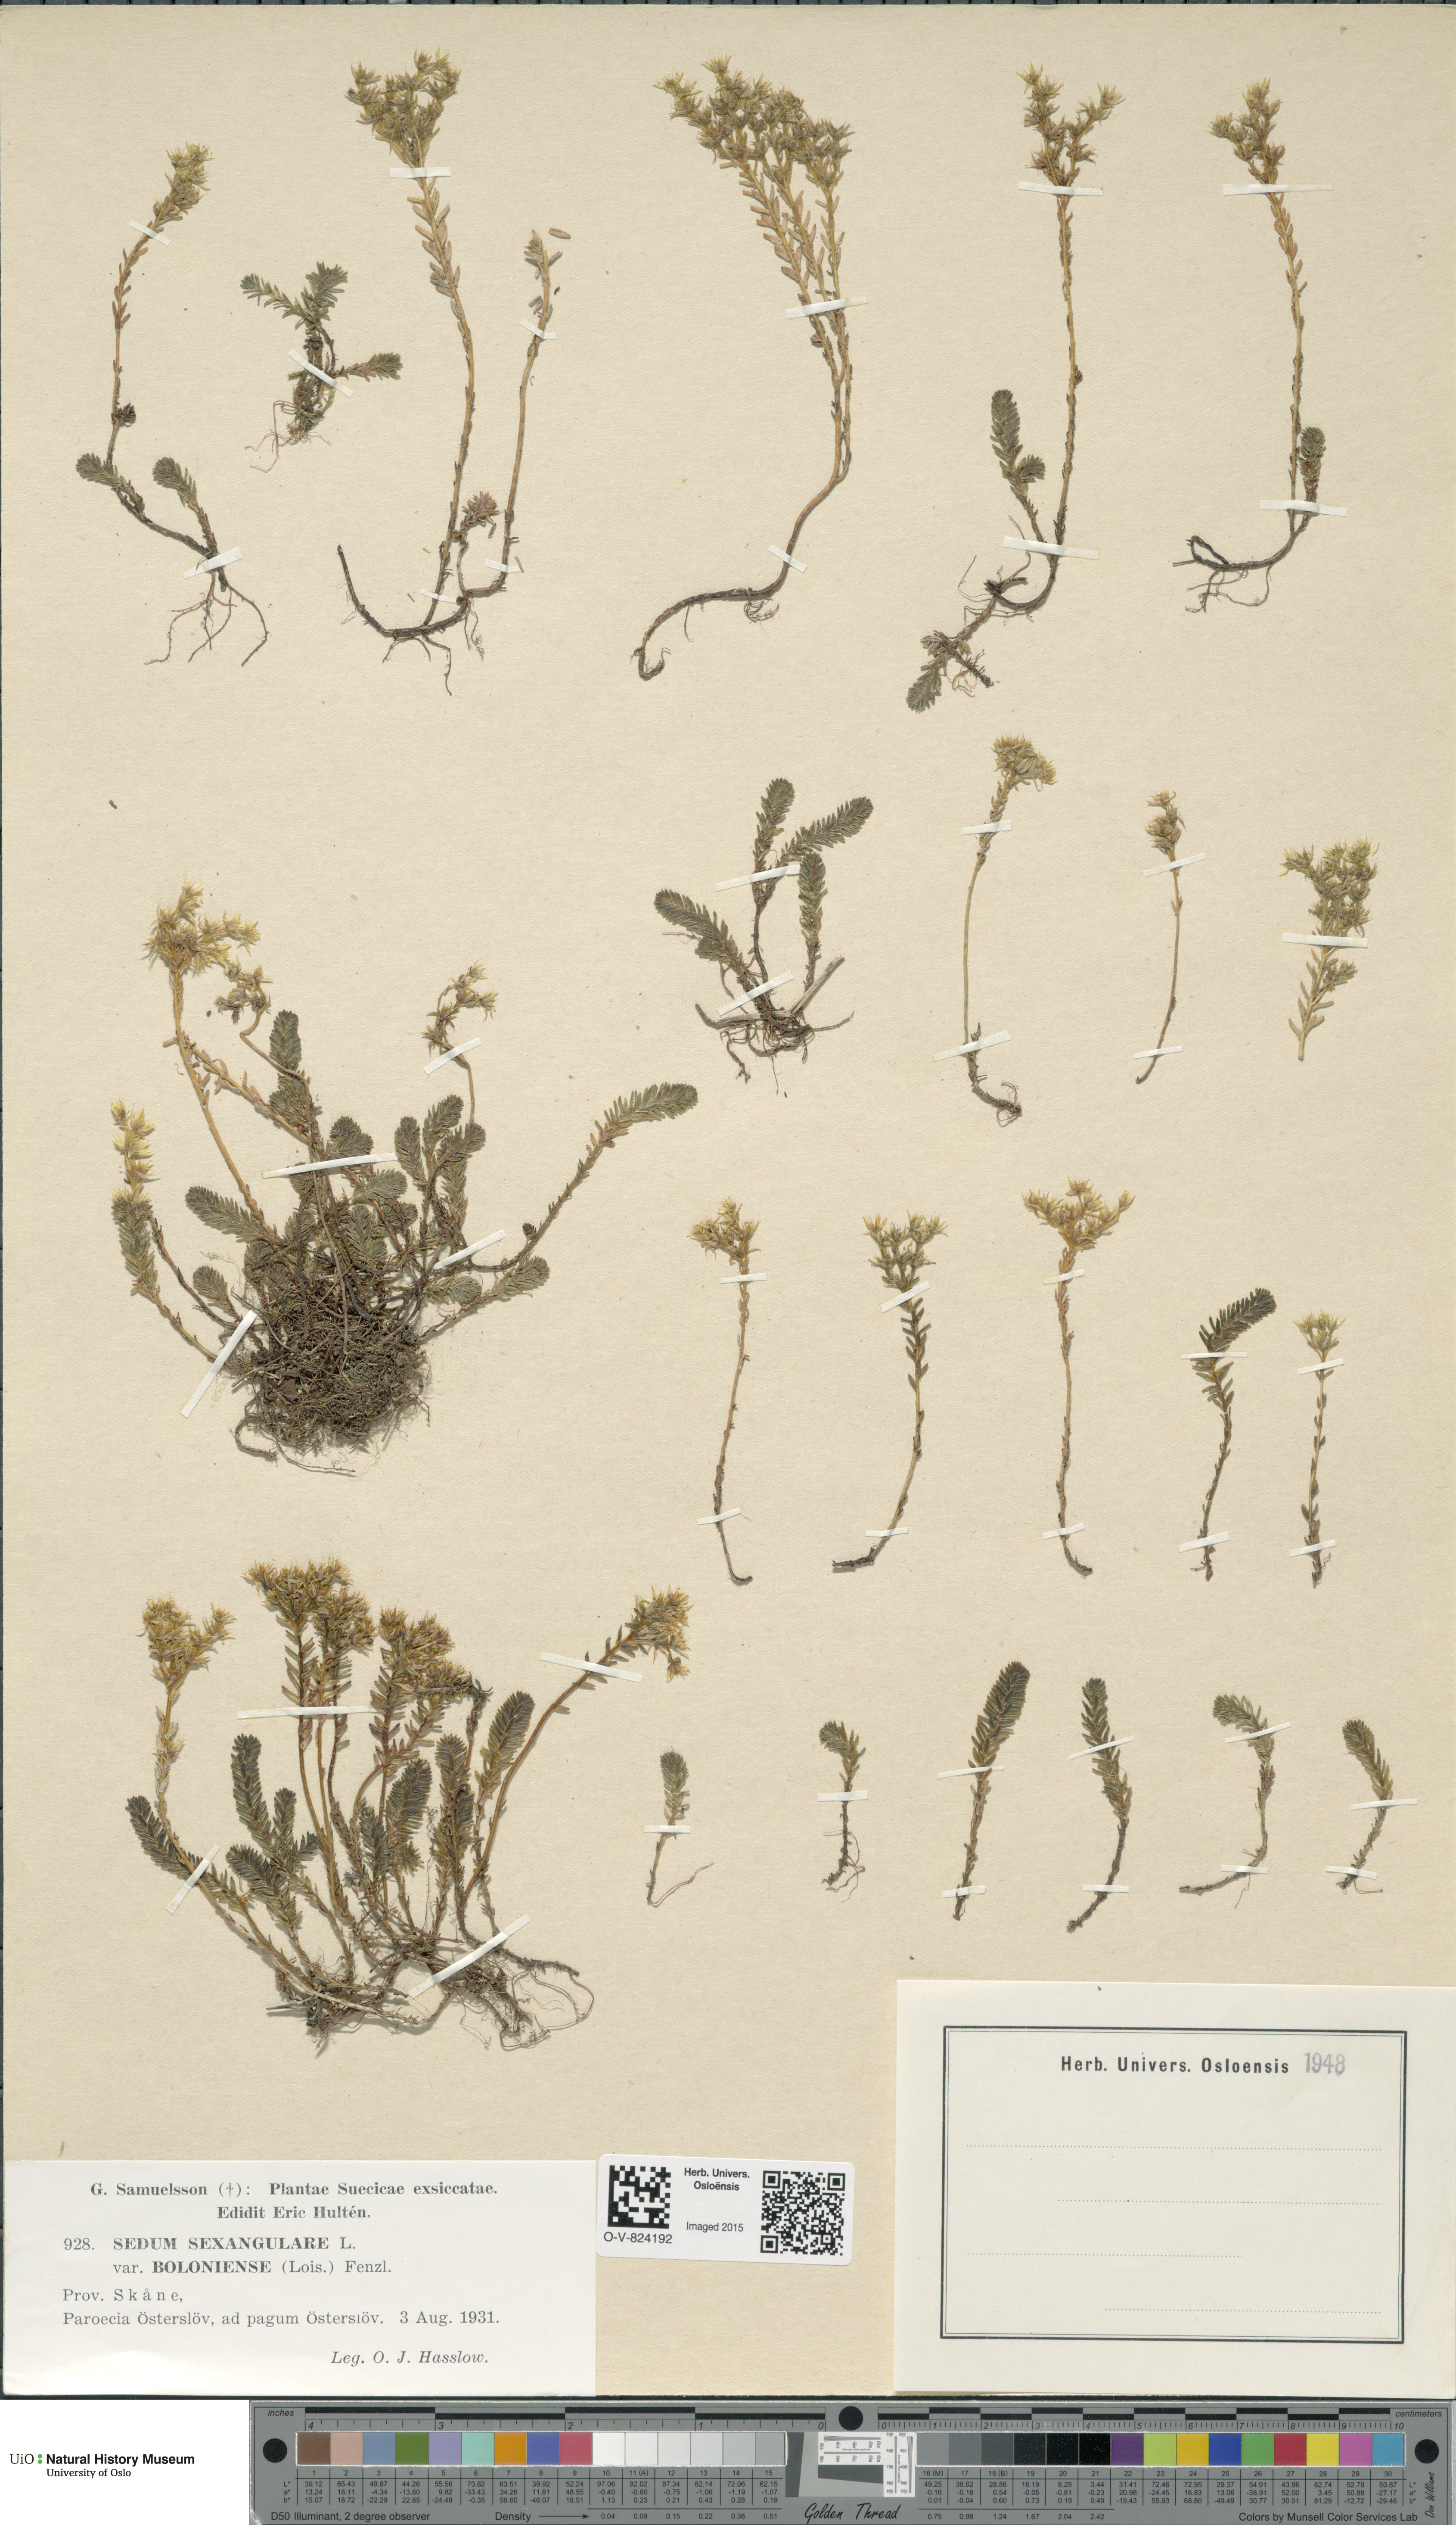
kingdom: Plantae
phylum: Tracheophyta
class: Magnoliopsida
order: Saxifragales
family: Crassulaceae
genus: Sedum
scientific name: Sedum sexangulare
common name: Tasteless stonecrop
